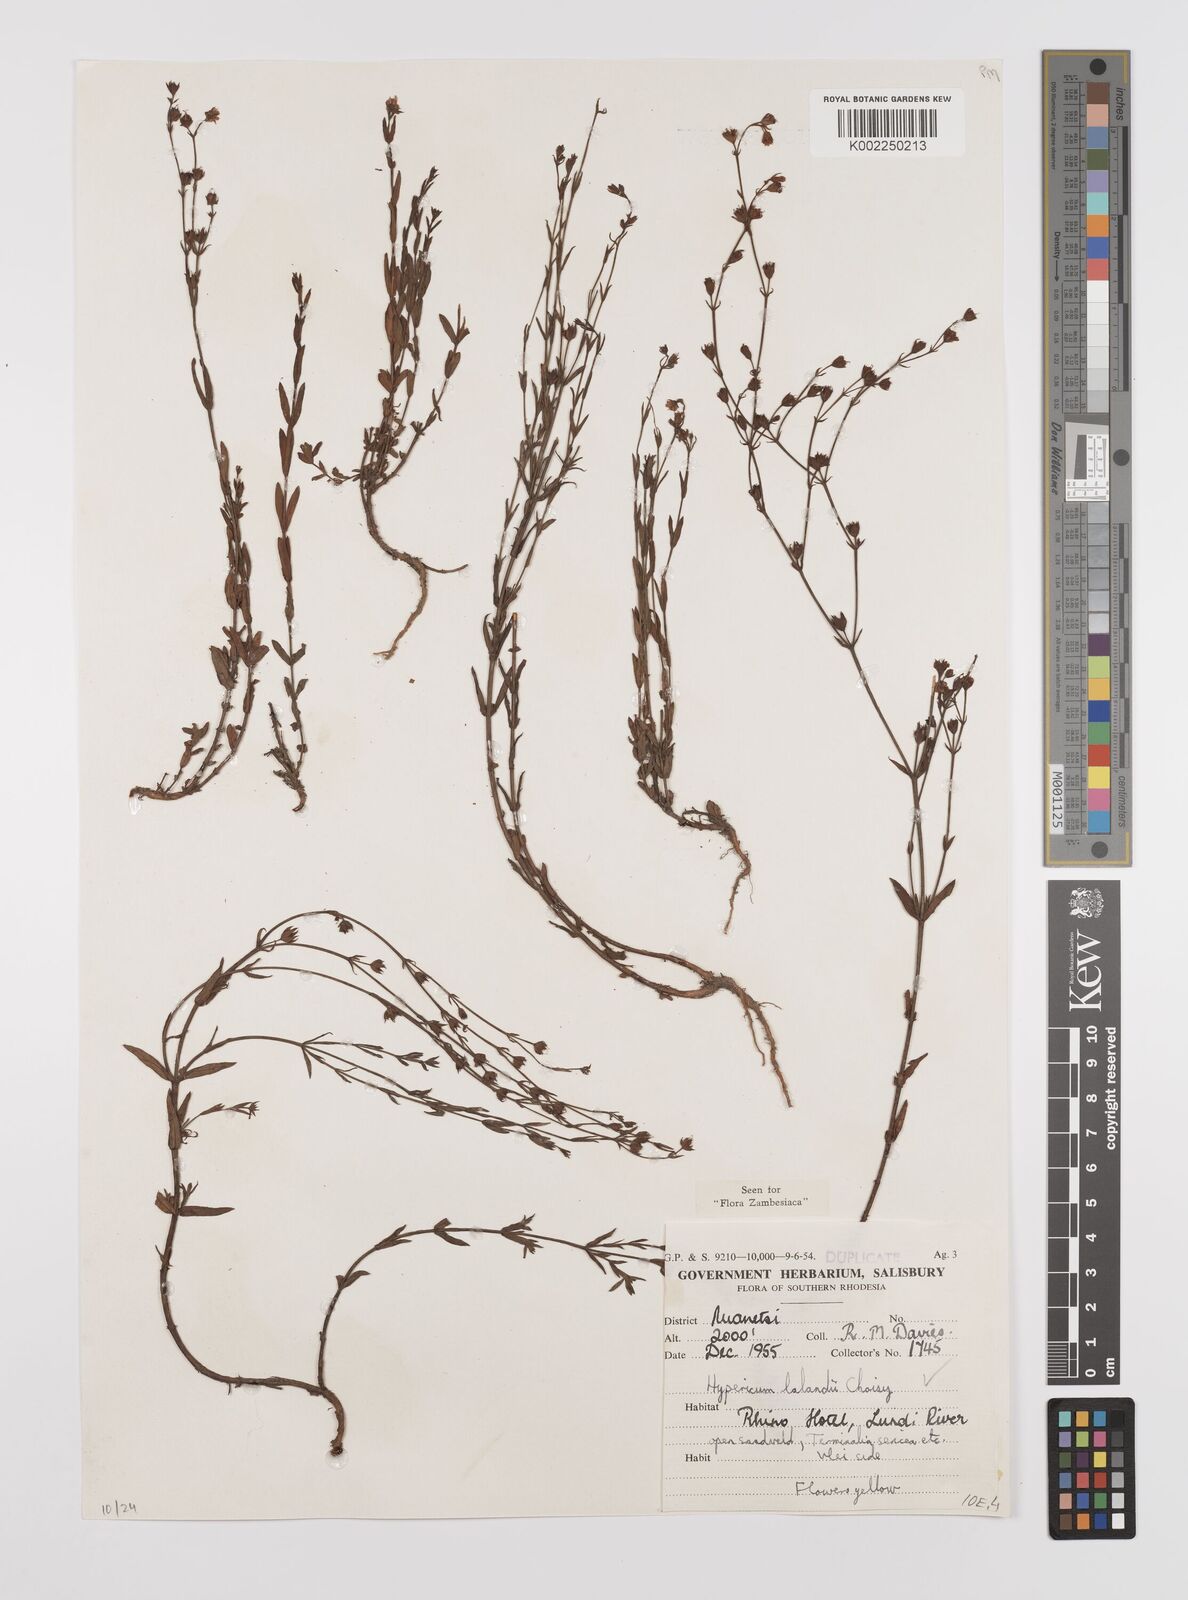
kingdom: Plantae
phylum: Tracheophyta
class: Magnoliopsida
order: Malpighiales
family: Hypericaceae
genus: Hypericum
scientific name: Hypericum lalandii
